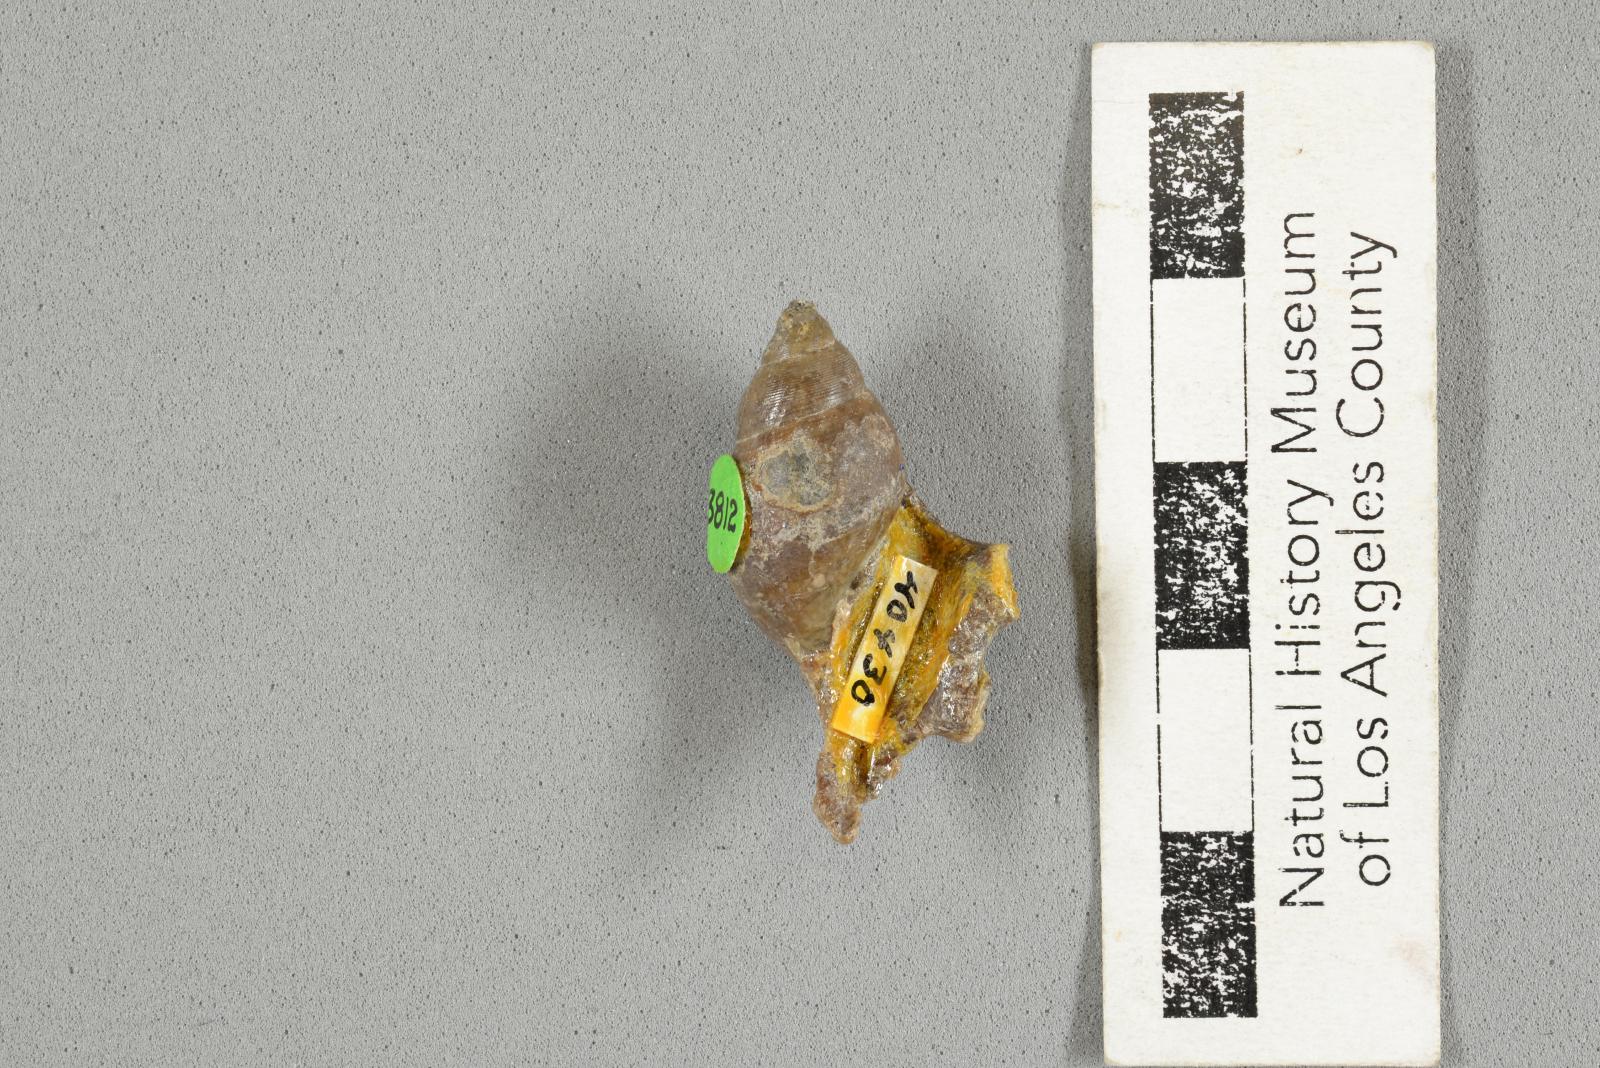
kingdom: Animalia
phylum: Mollusca
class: Gastropoda
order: Littorinimorpha
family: Aporrhaidae
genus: Lispodesthes
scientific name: Lispodesthes Pugnellus rotundus
